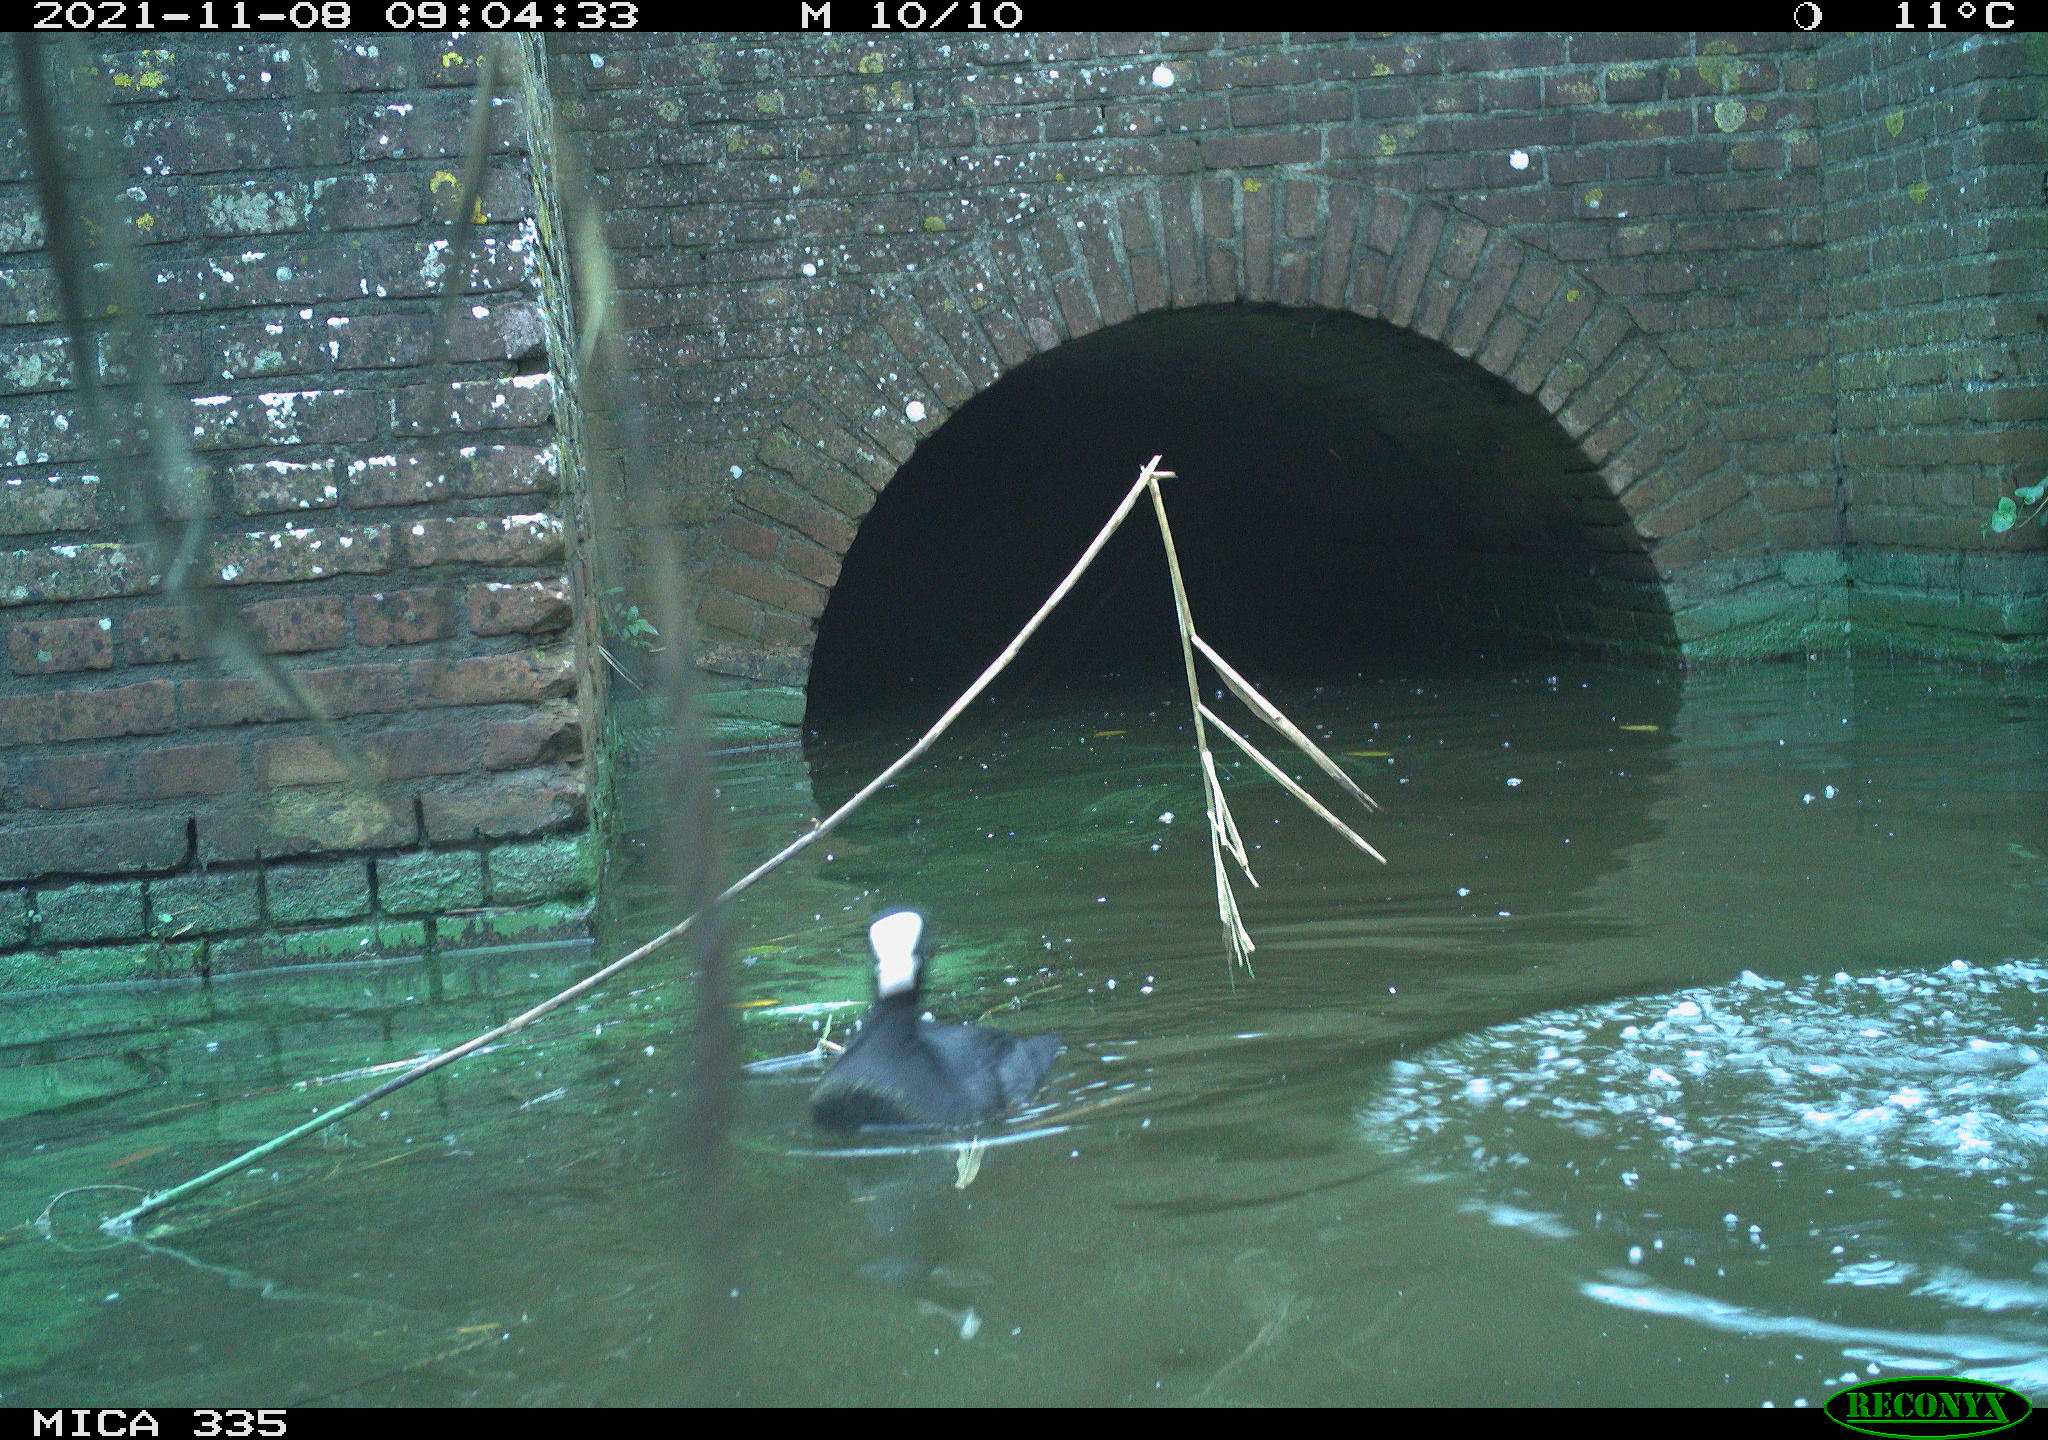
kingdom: Animalia
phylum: Chordata
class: Aves
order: Gruiformes
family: Rallidae
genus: Fulica
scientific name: Fulica atra
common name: Eurasian coot
